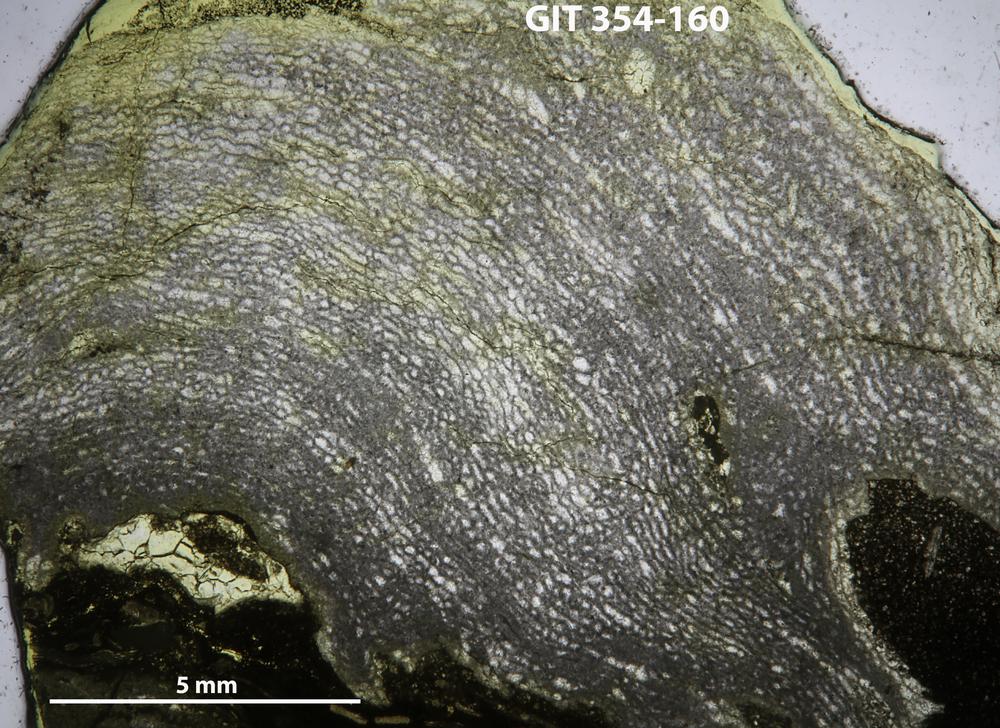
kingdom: Animalia
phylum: Porifera
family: Clathrodictyidae
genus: Clathrodictyon
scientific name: Clathrodictyon sulevi
